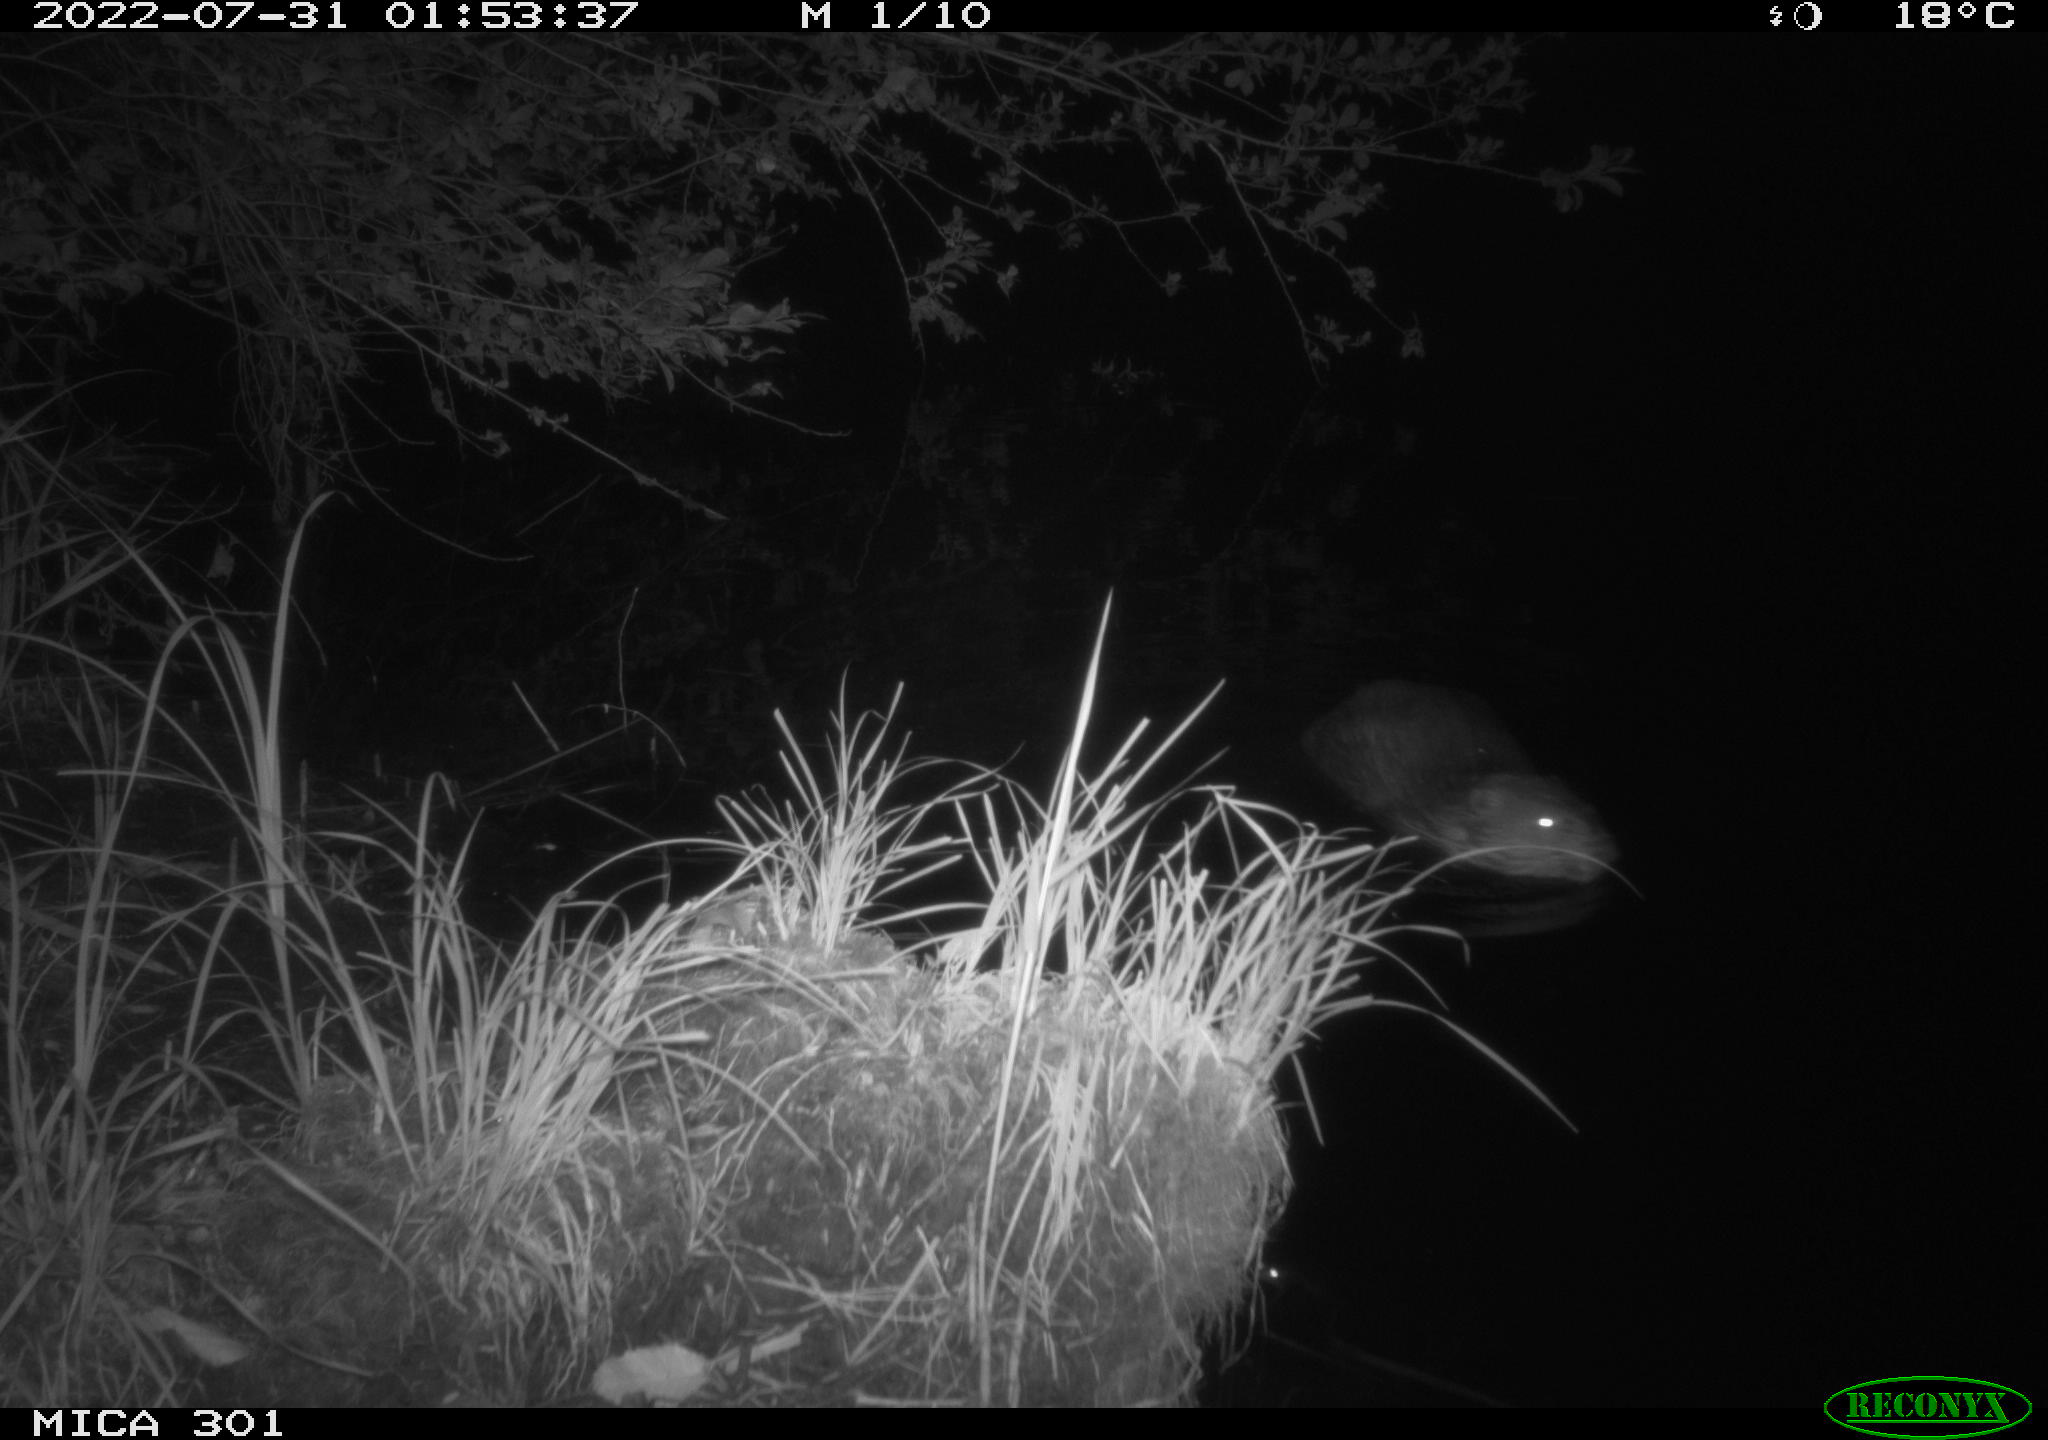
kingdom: Animalia
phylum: Chordata
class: Mammalia
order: Rodentia
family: Castoridae
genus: Castor
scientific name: Castor fiber
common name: Eurasian beaver
